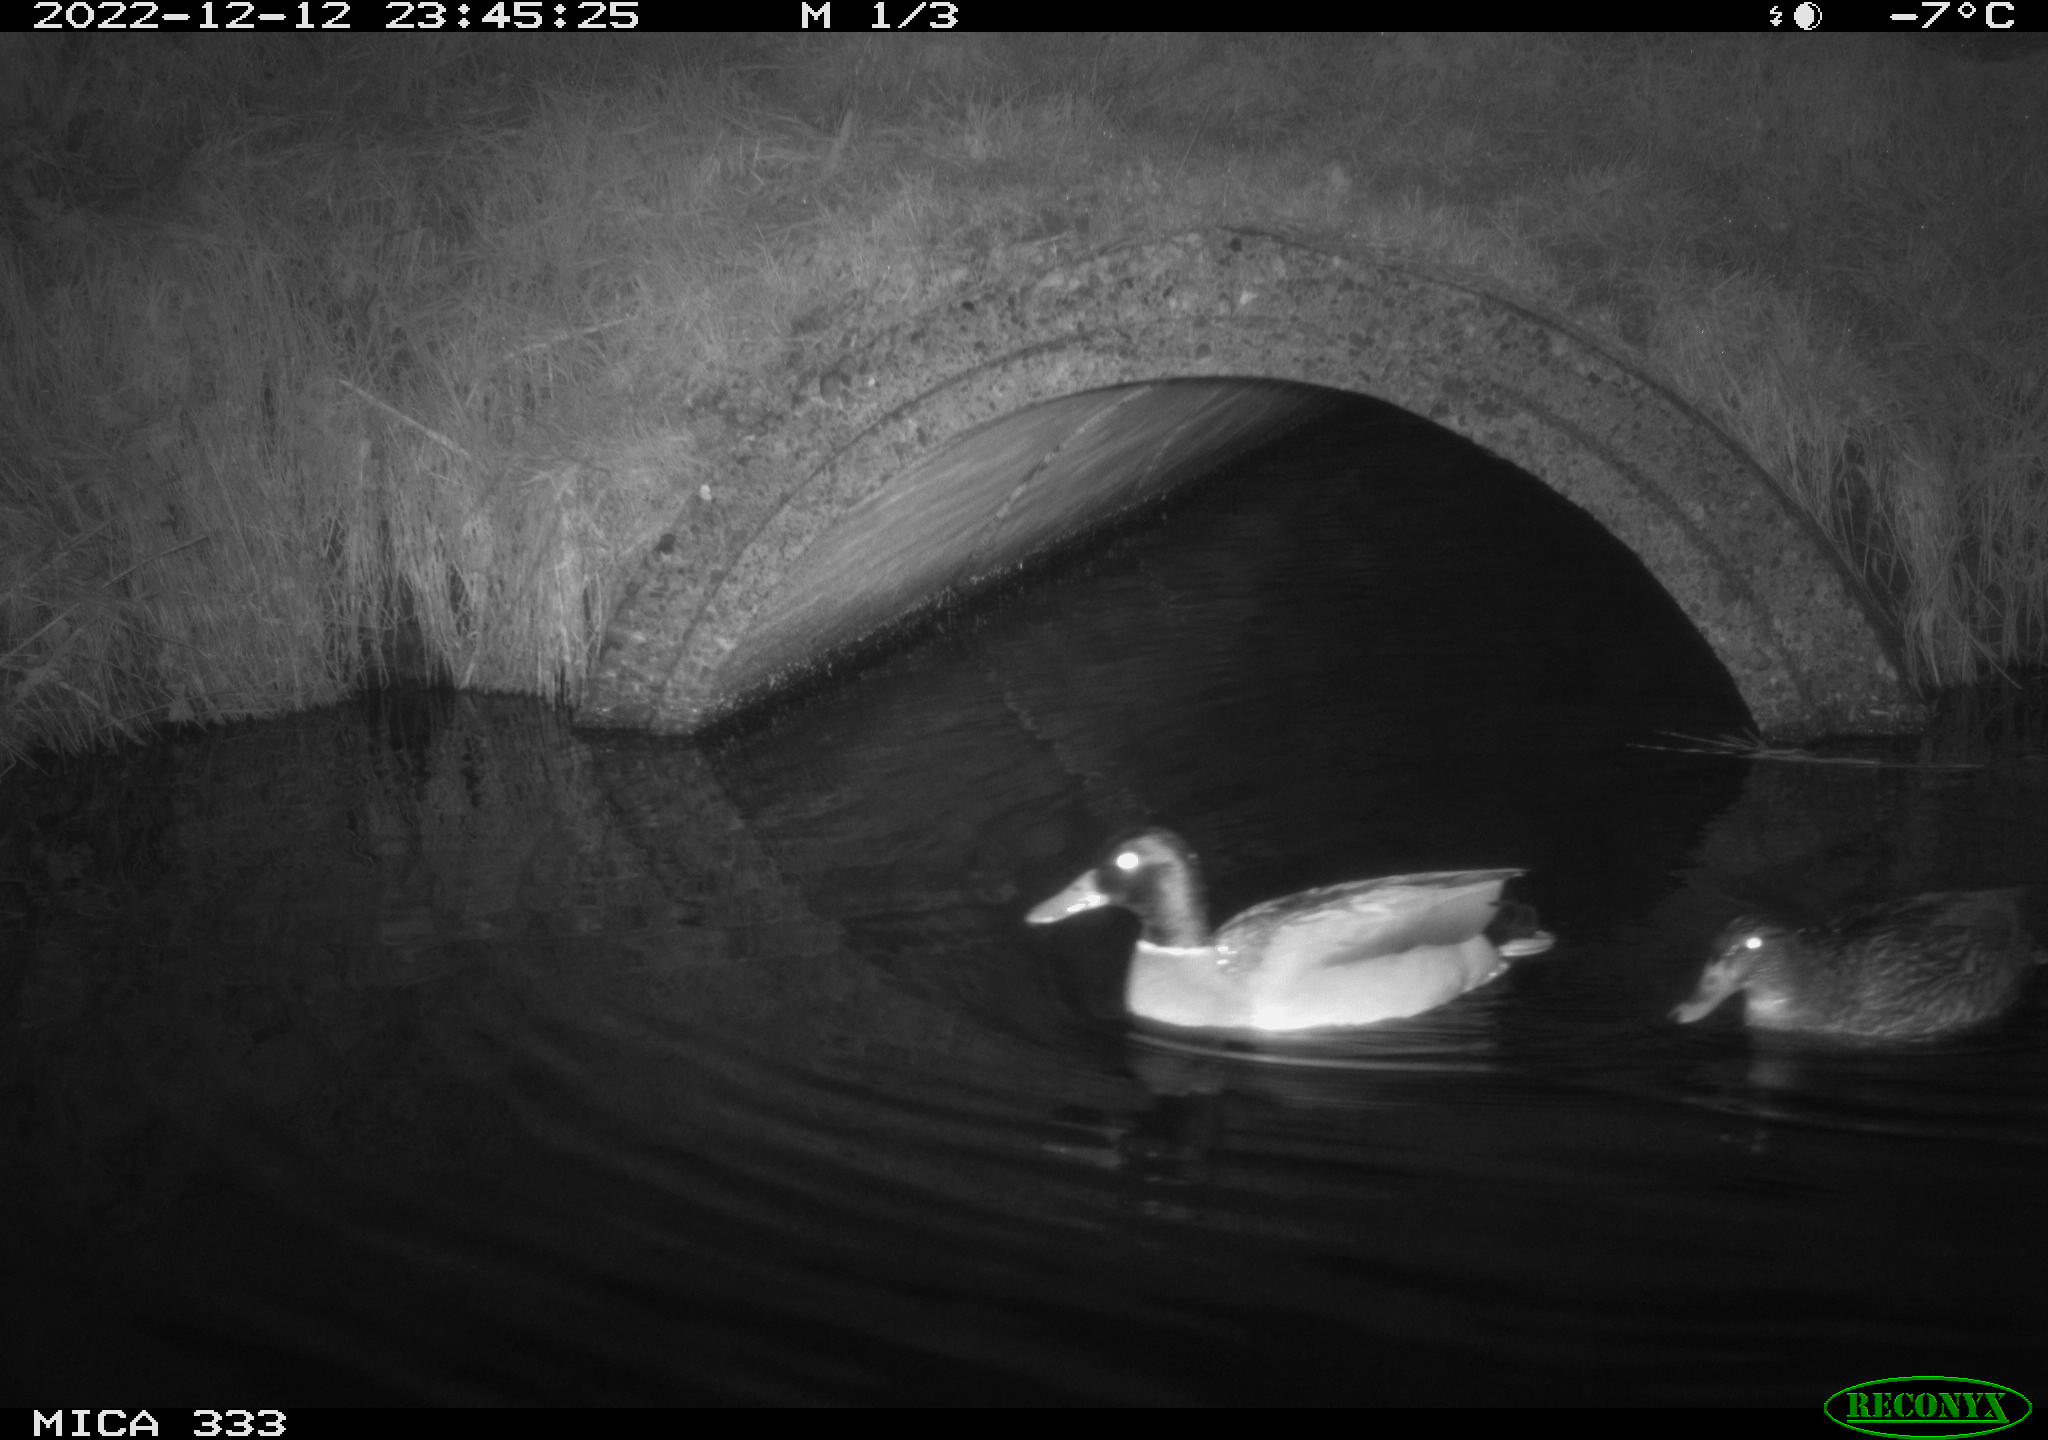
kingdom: Animalia
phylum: Chordata
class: Aves
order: Anseriformes
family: Anatidae
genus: Anas
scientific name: Anas
